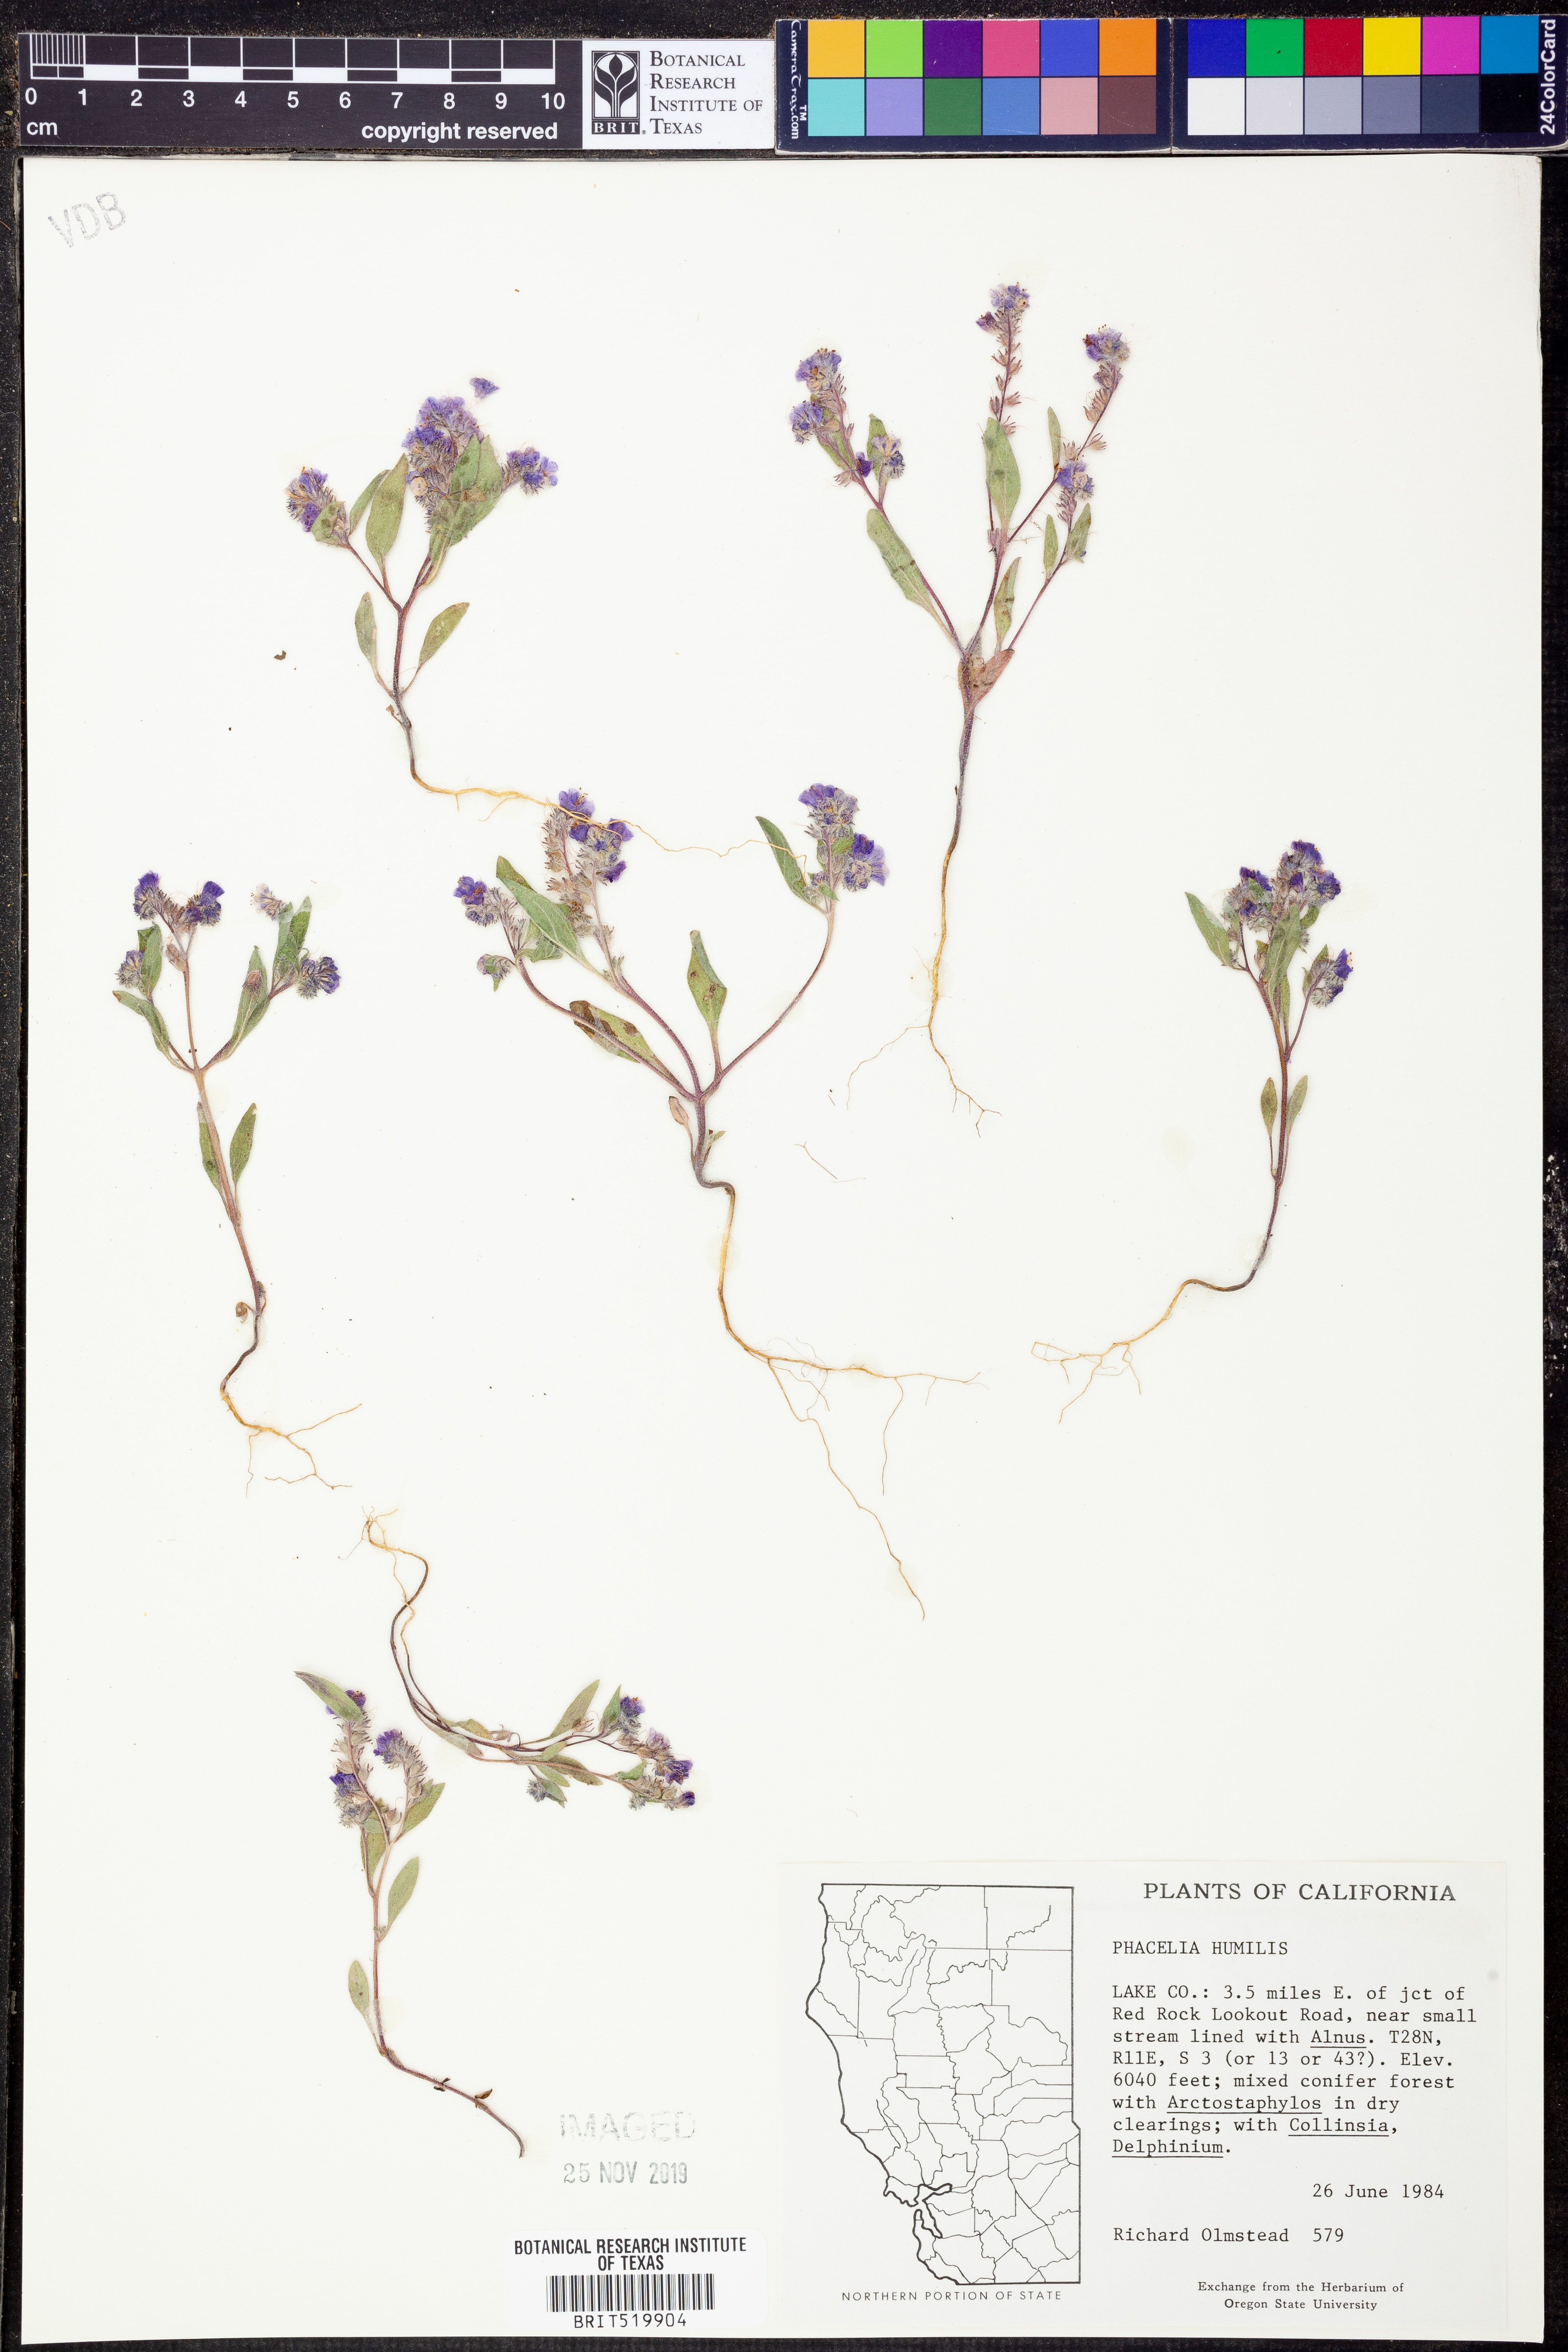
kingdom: Plantae
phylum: Tracheophyta
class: Magnoliopsida
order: Boraginales
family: Hydrophyllaceae
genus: Phacelia
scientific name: Phacelia humilis
